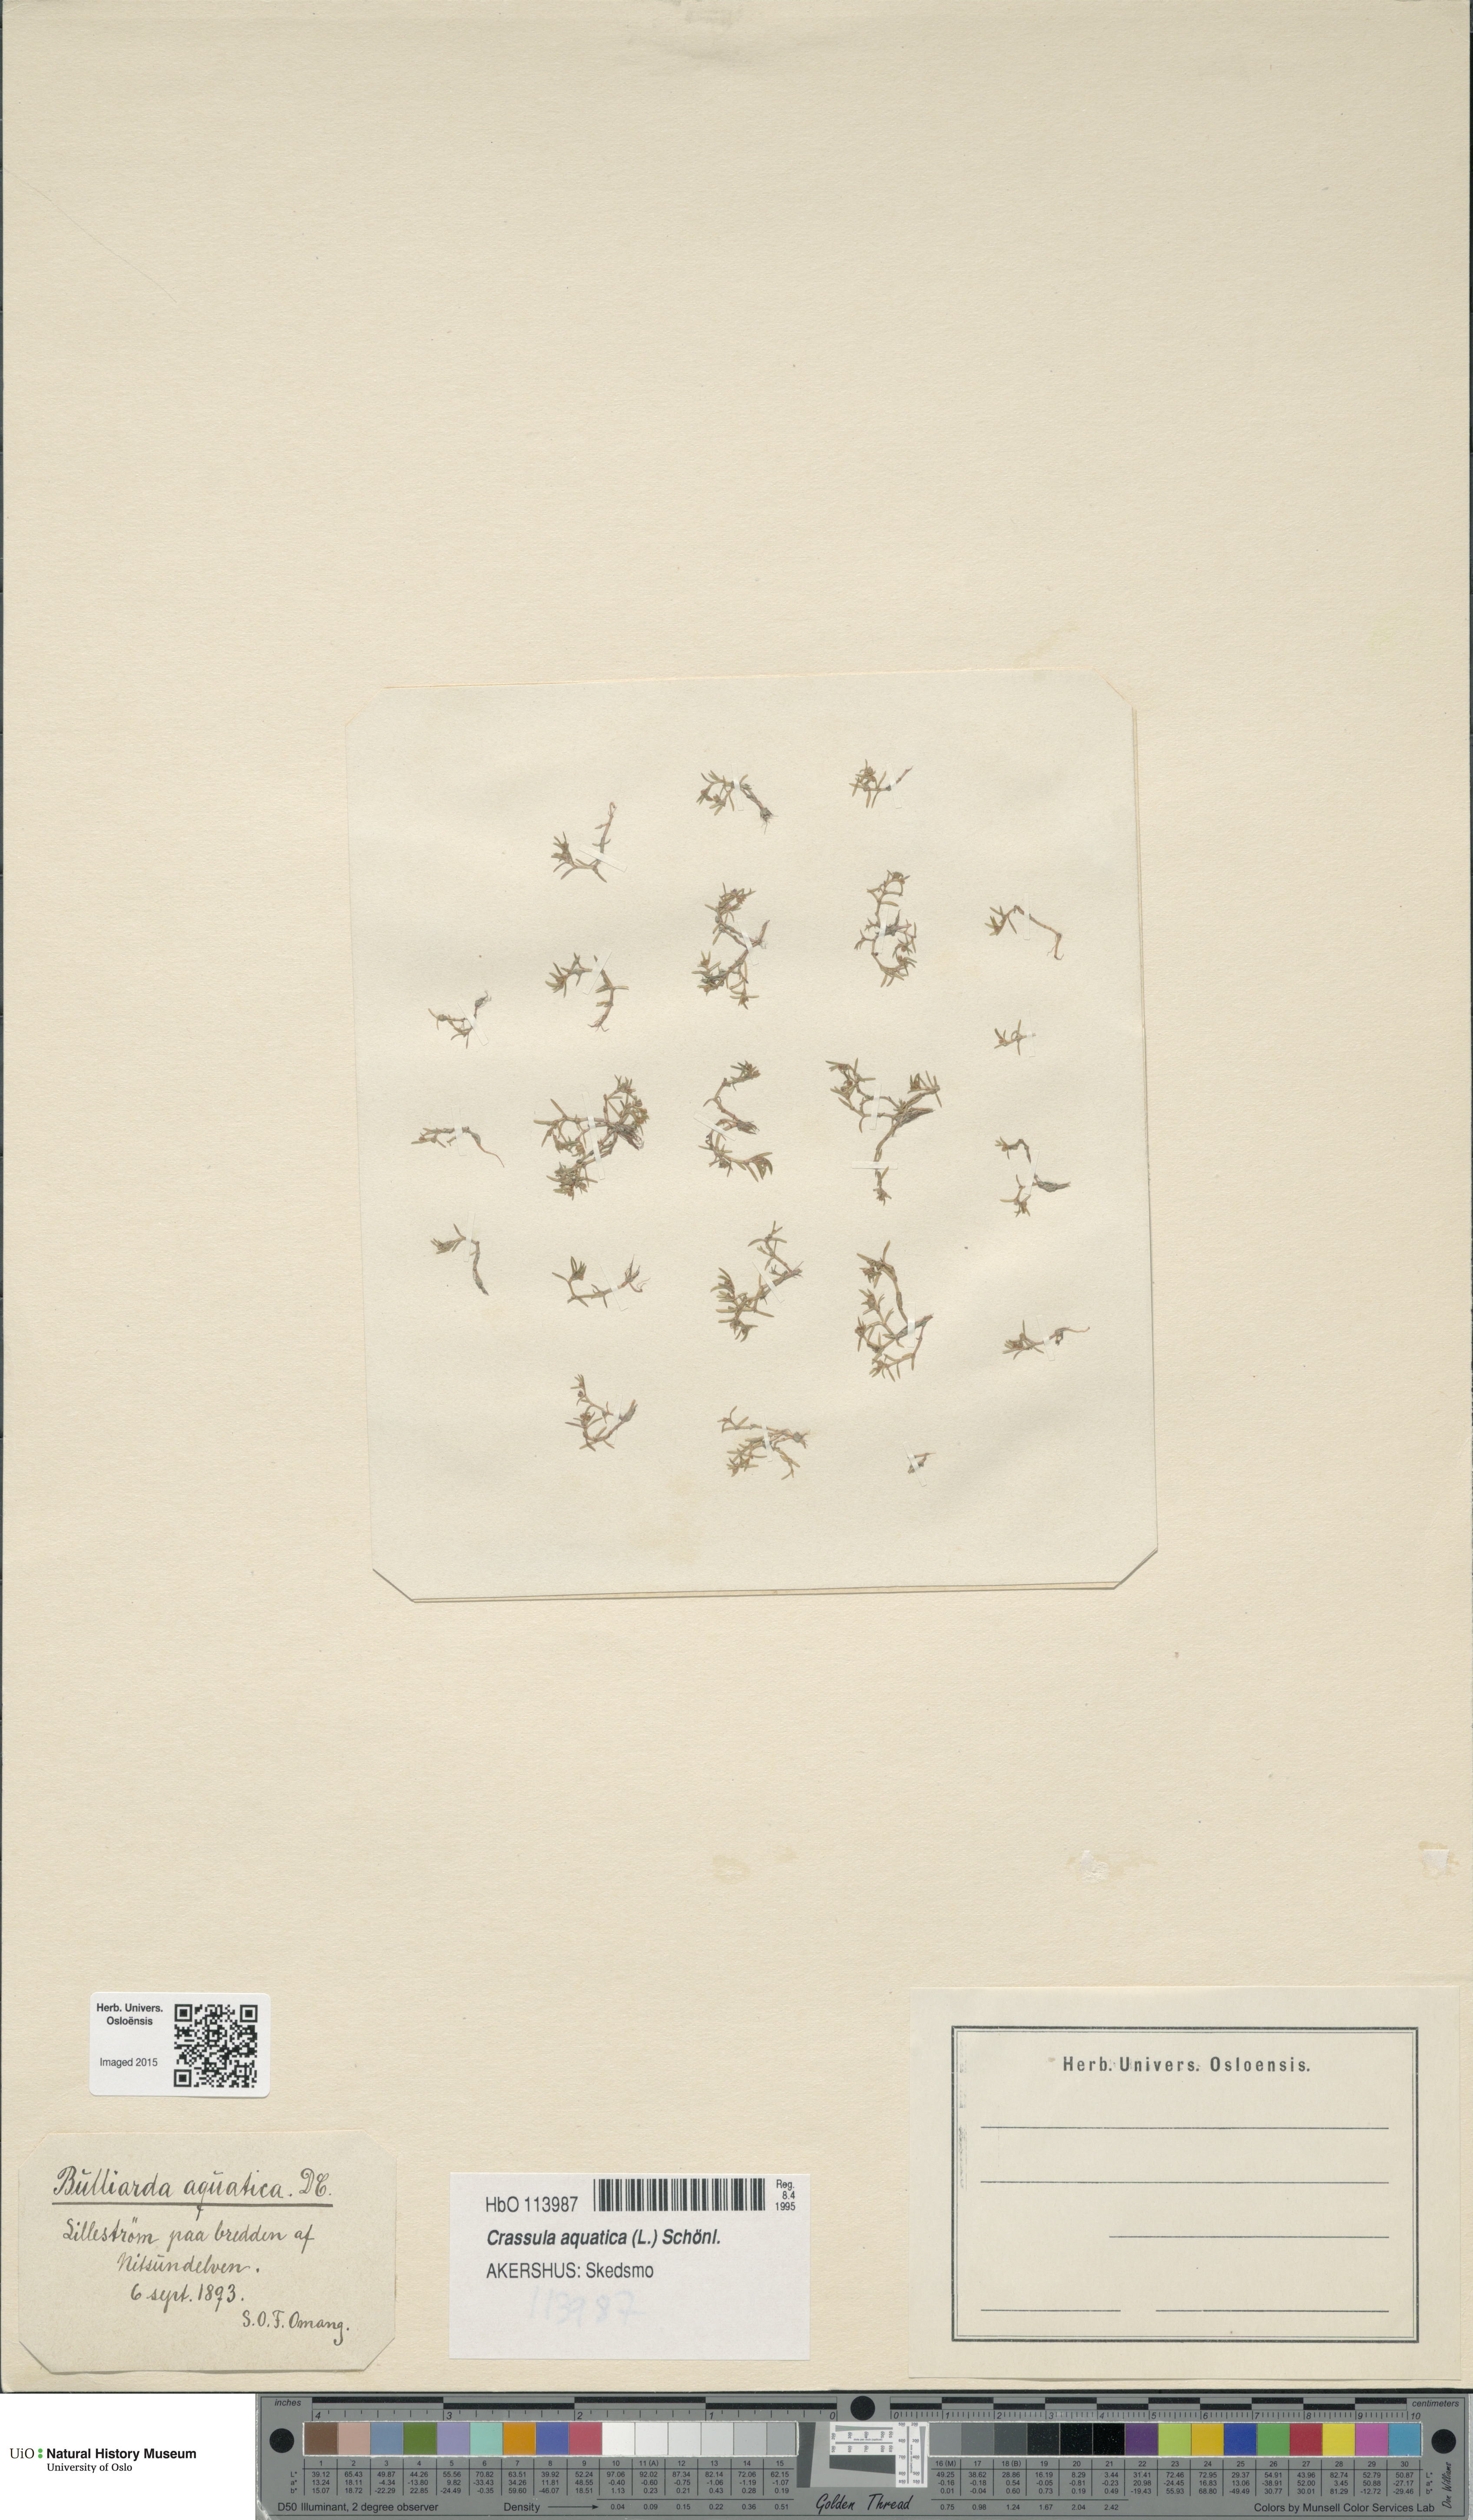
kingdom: Plantae
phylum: Tracheophyta
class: Magnoliopsida
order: Saxifragales
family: Crassulaceae
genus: Crassula
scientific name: Crassula aquatica
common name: Pigmyweed
